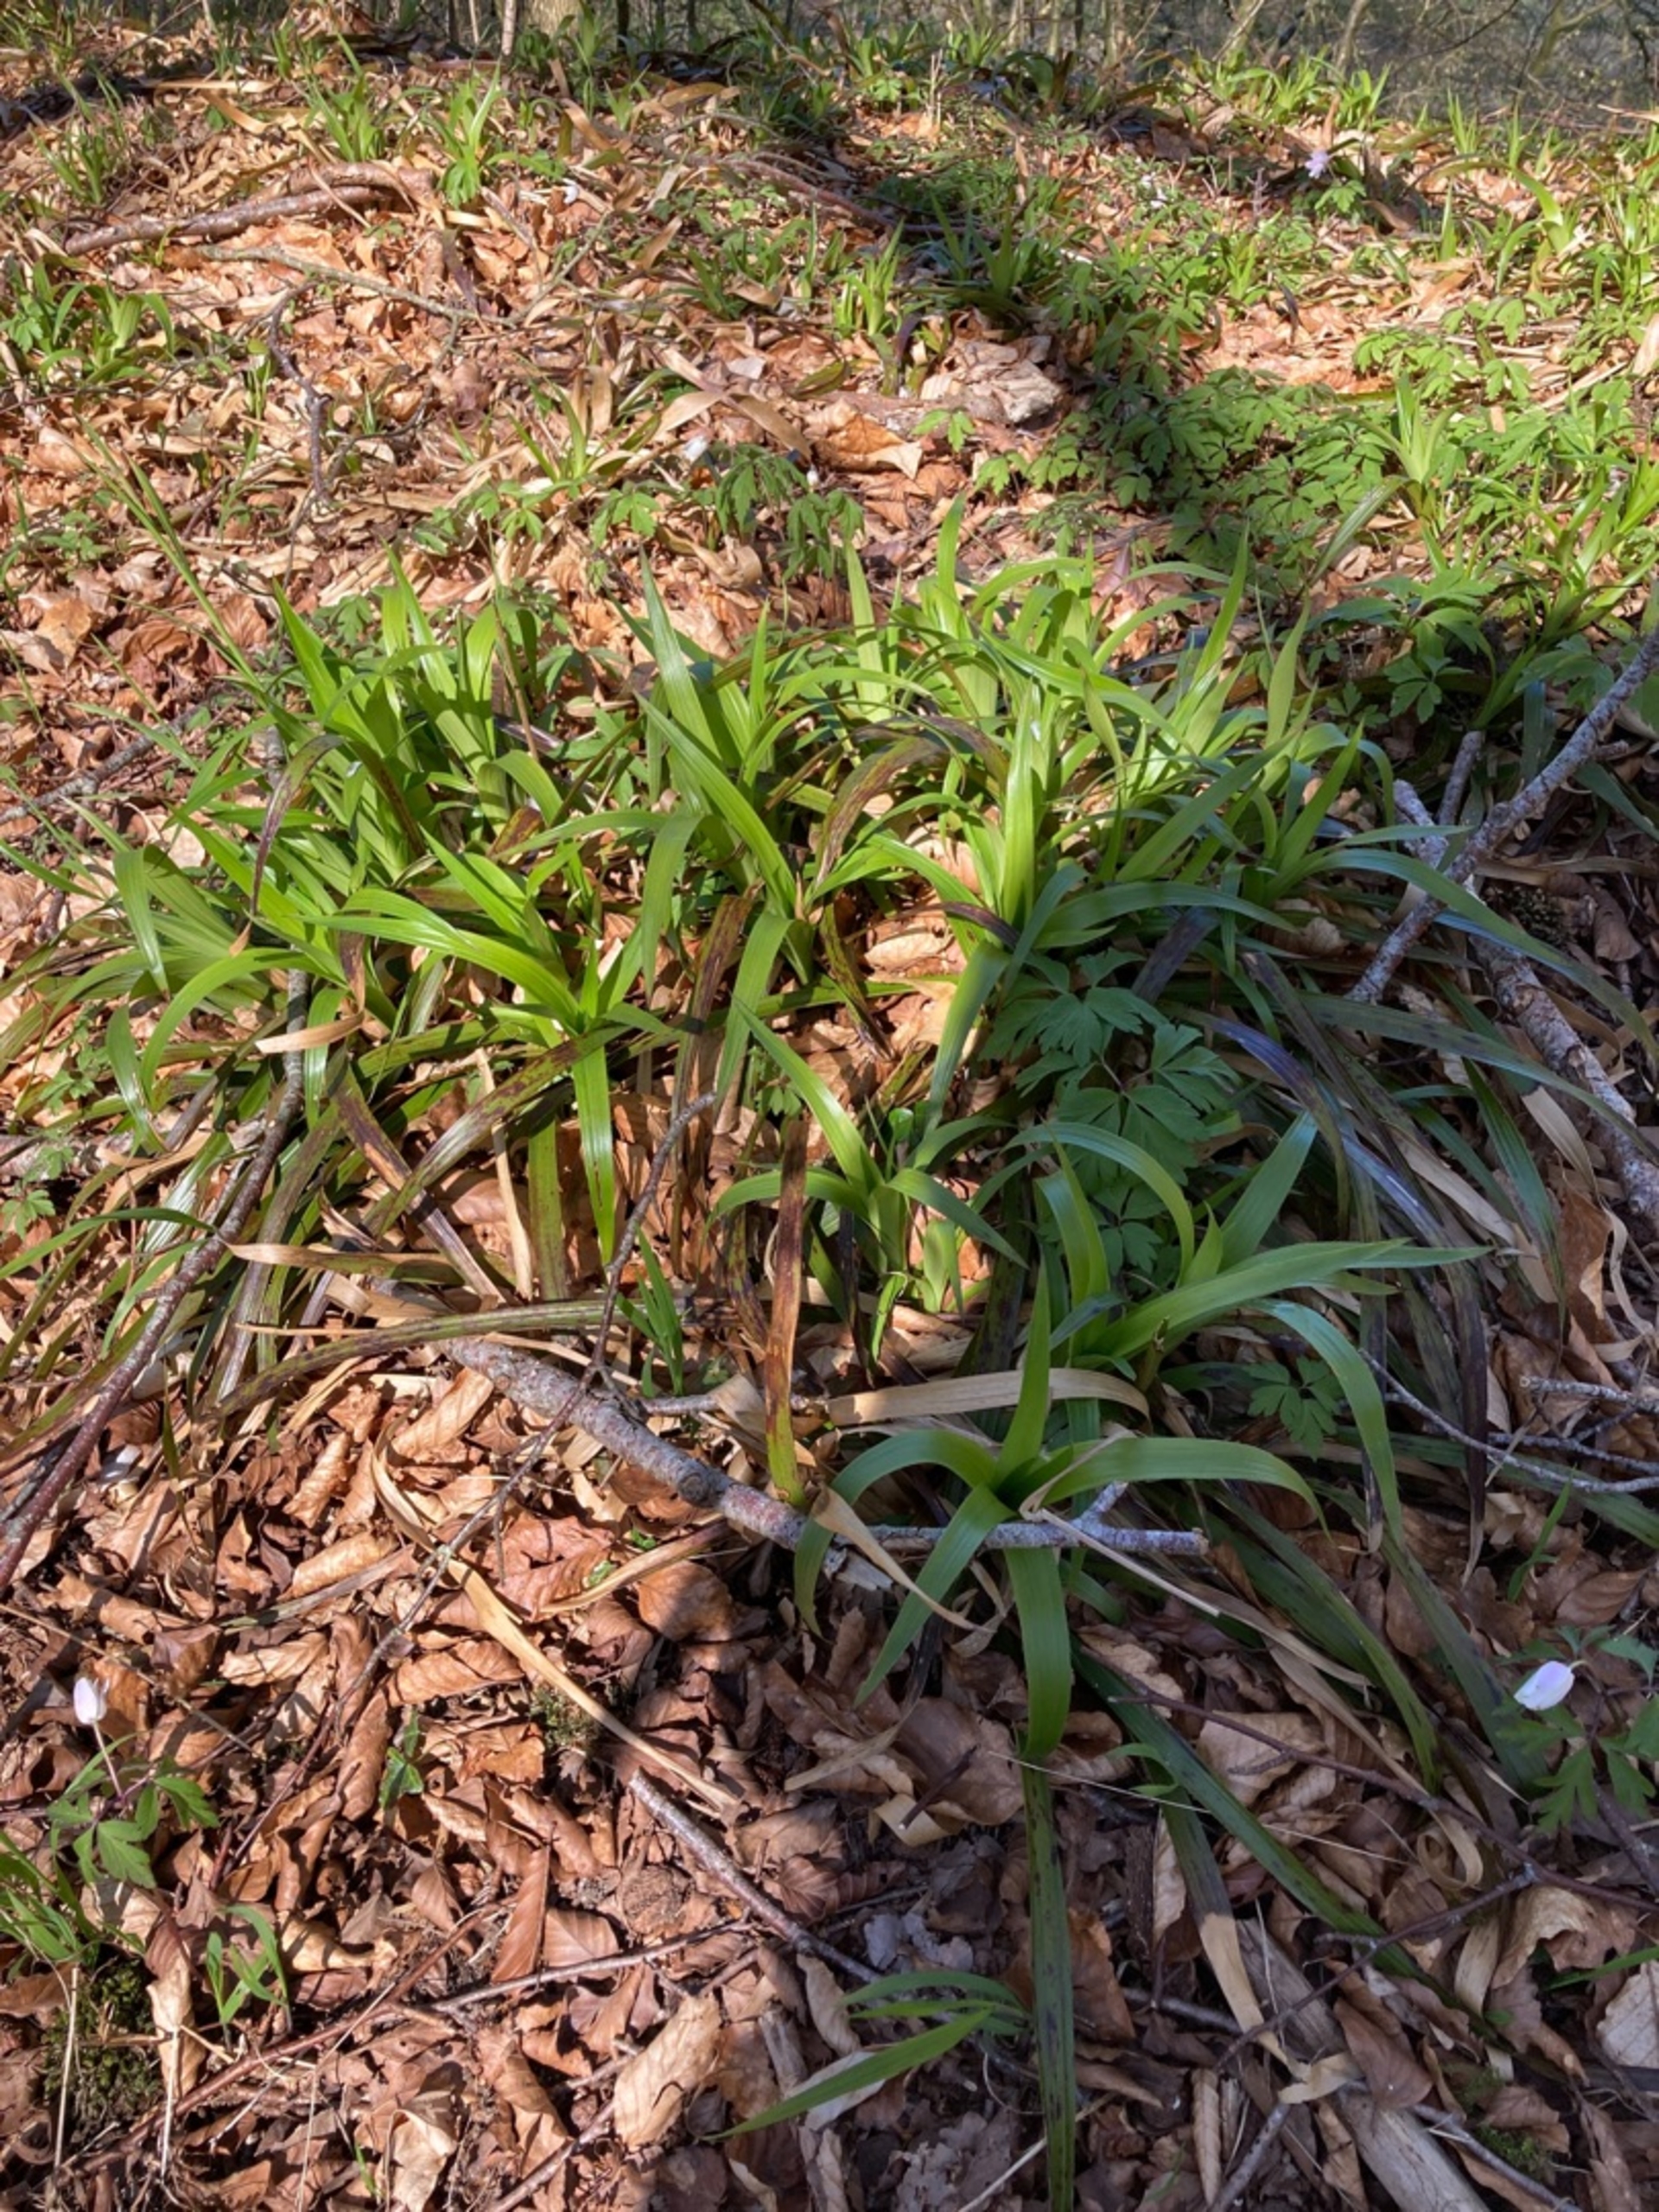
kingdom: Plantae
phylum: Tracheophyta
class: Liliopsida
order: Poales
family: Juncaceae
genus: Luzula
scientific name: Luzula sylvatica
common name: Stor frytle
